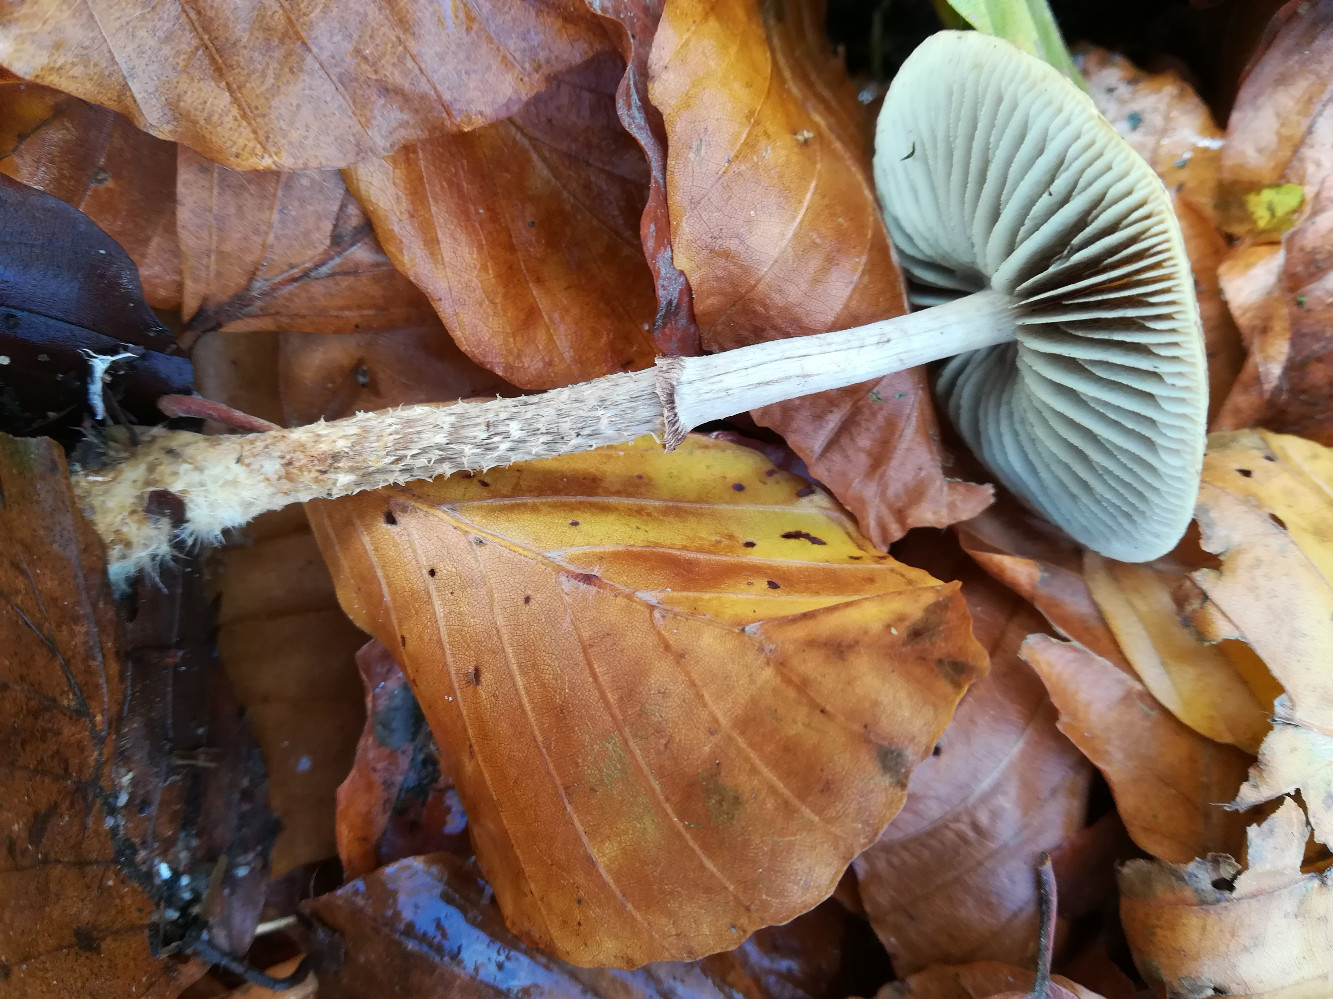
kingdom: Fungi
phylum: Basidiomycota
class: Agaricomycetes
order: Agaricales
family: Strophariaceae
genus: Leratiomyces
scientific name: Leratiomyces squamosus
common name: skællet bredblad
